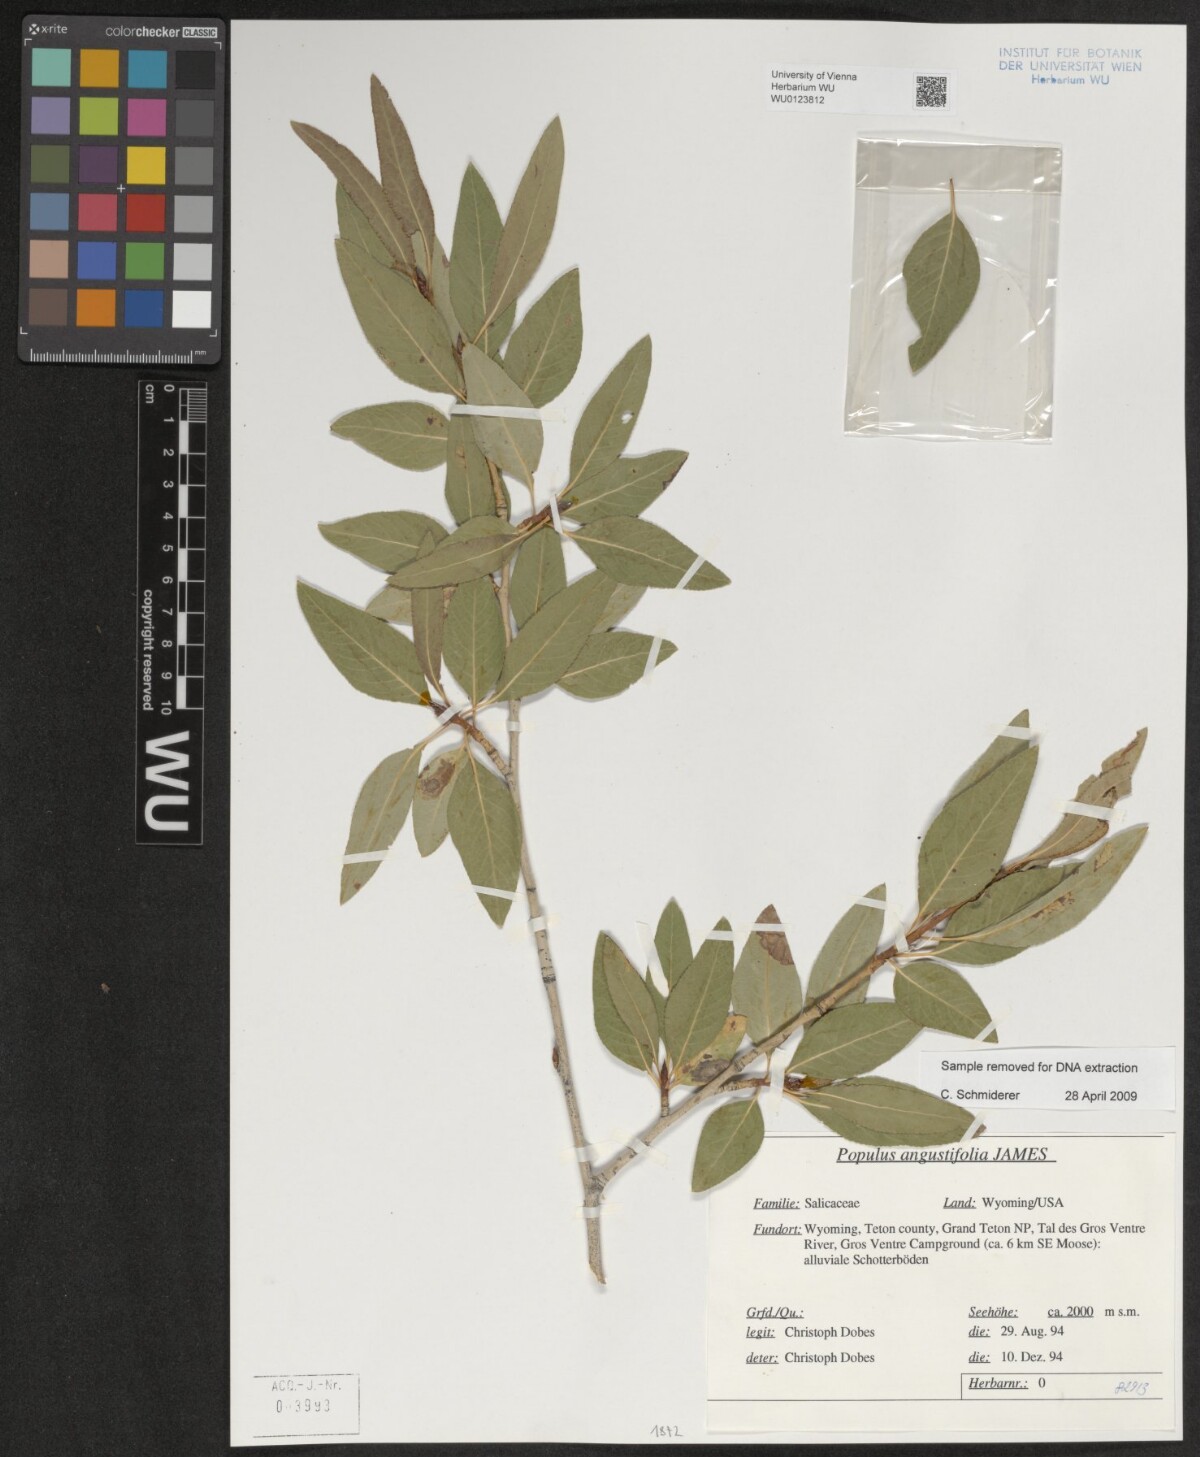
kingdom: Plantae
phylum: Tracheophyta
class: Magnoliopsida
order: Malpighiales
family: Salicaceae
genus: Populus
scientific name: Populus angustifolia
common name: Willow cottonwood
